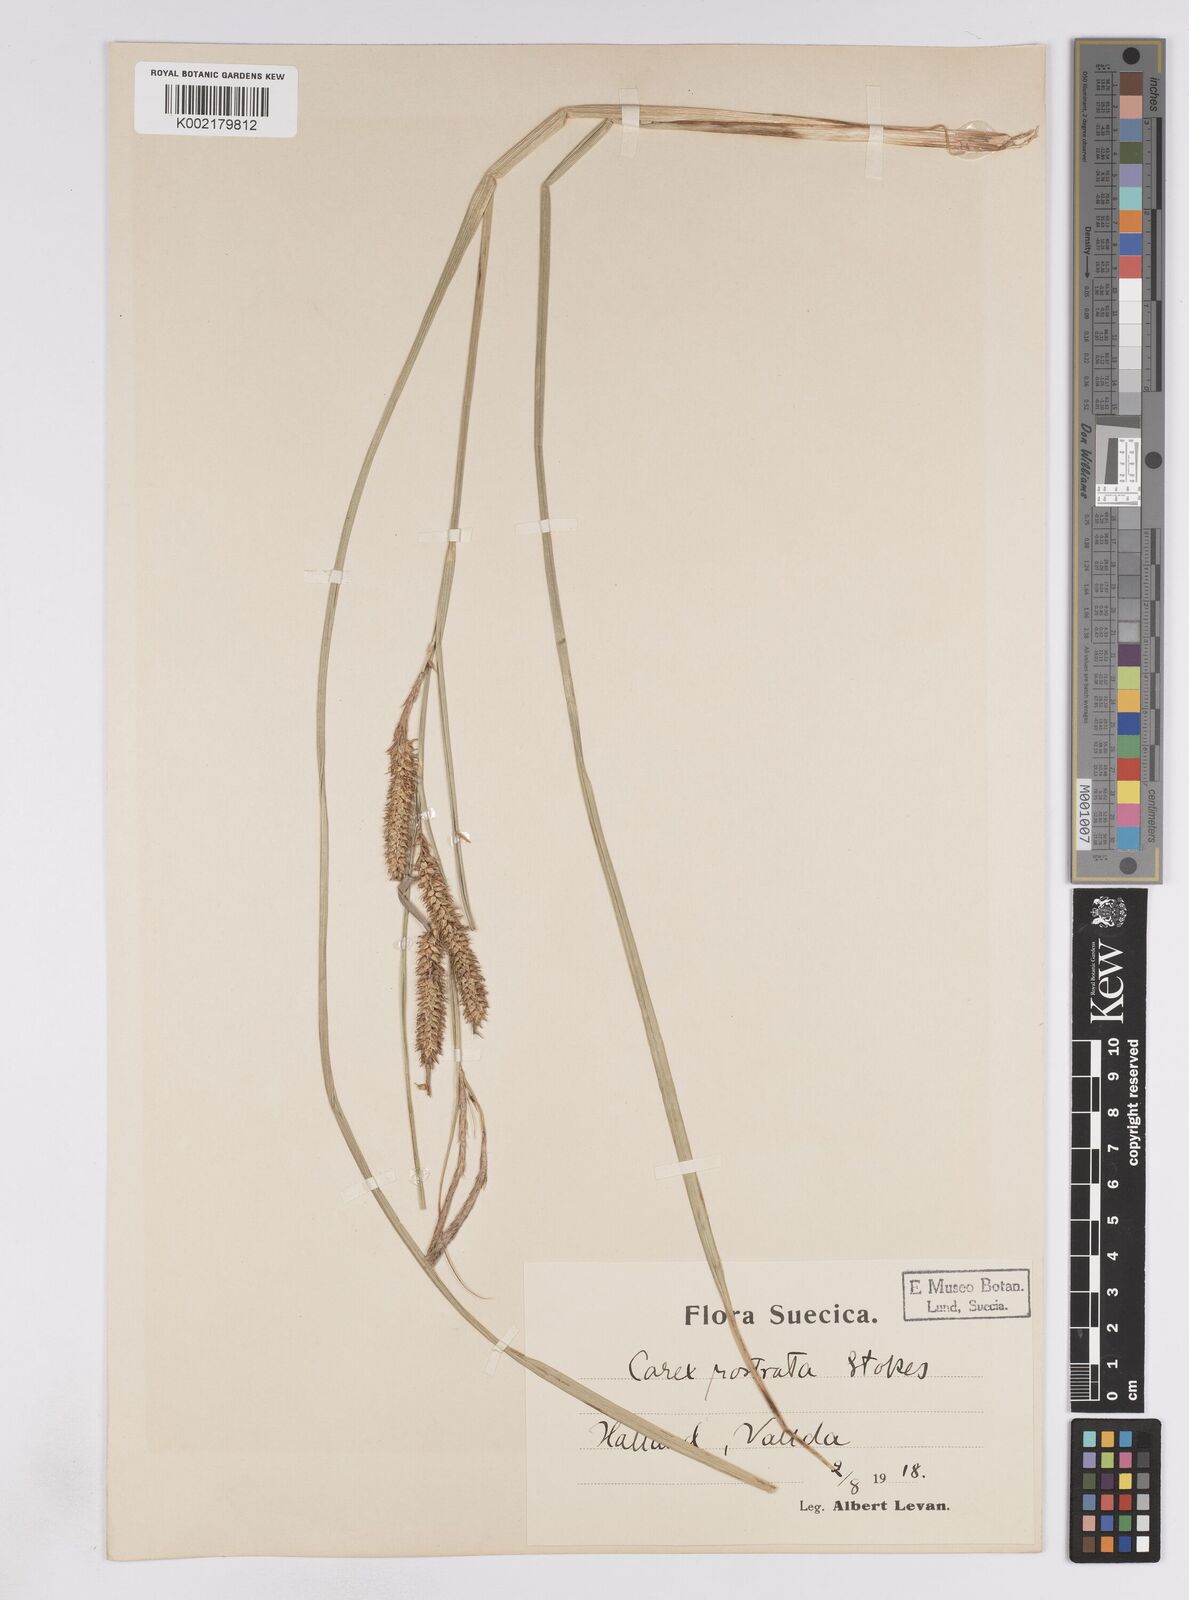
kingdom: Plantae
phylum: Tracheophyta
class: Liliopsida
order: Poales
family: Cyperaceae
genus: Carex
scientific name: Carex rostrata
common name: Bottle sedge
